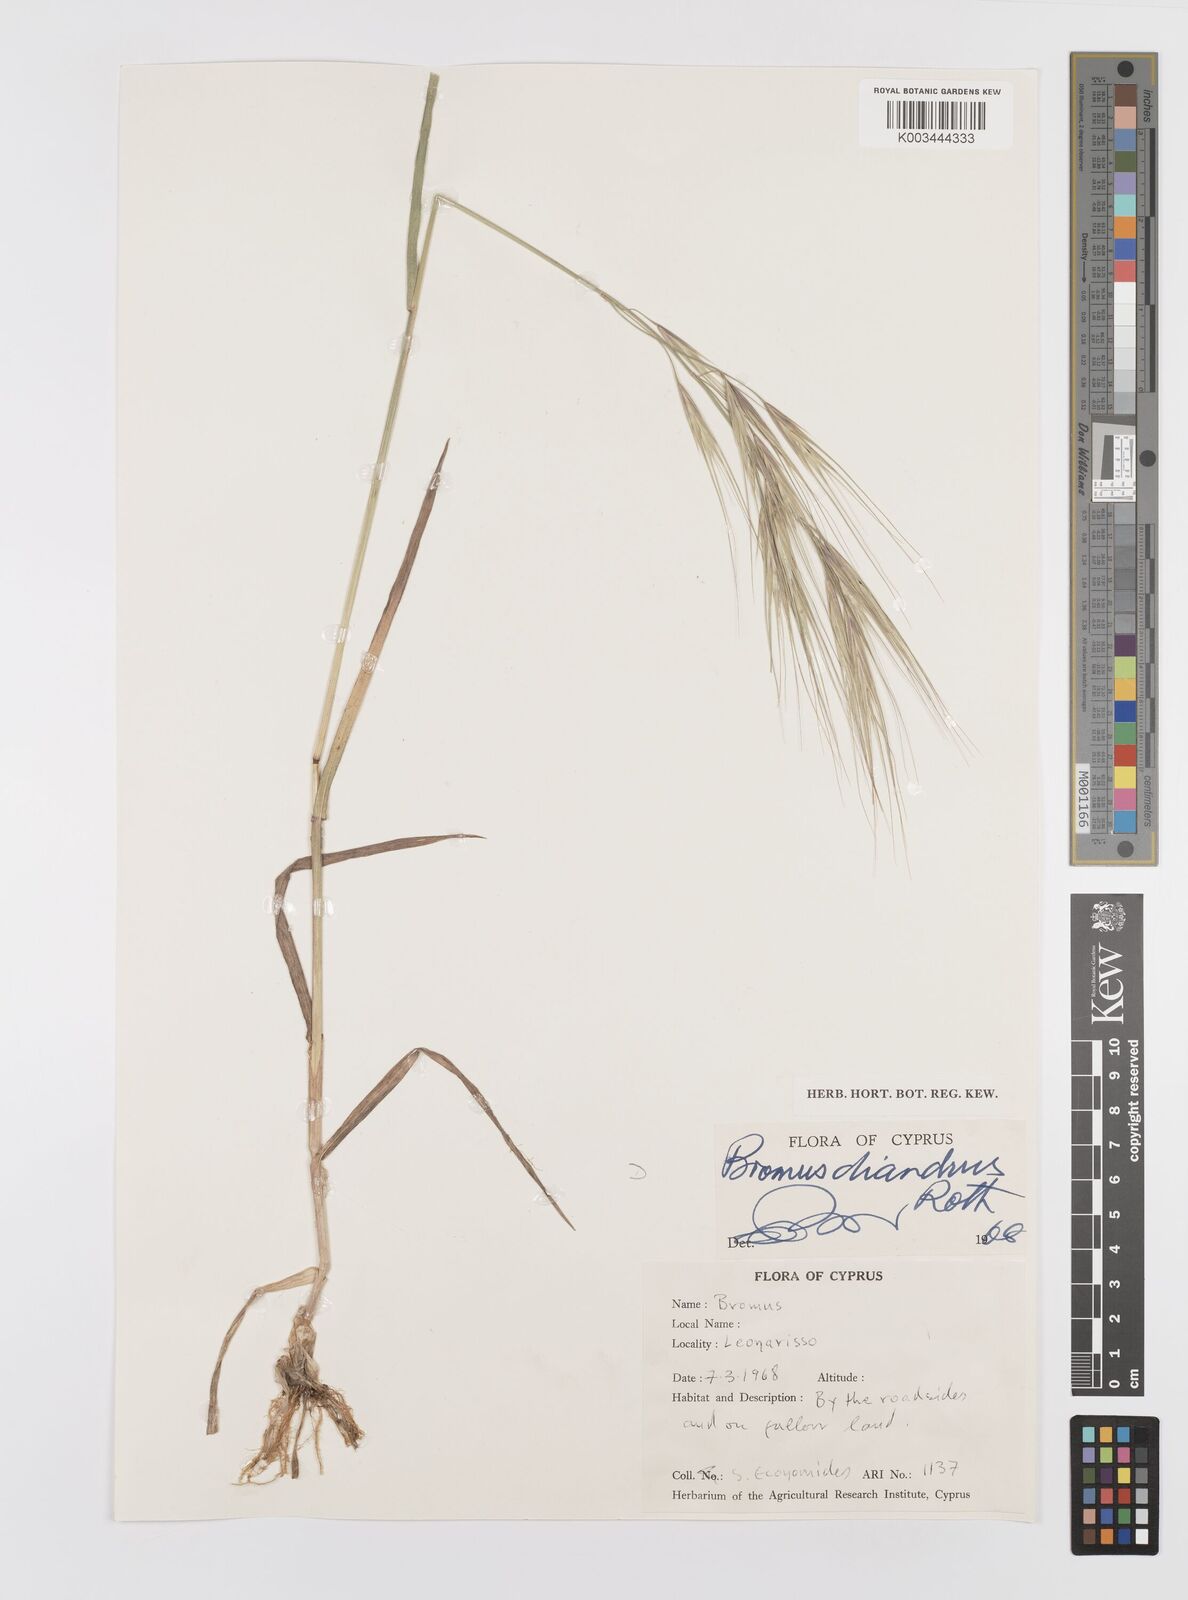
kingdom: Plantae
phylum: Tracheophyta
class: Liliopsida
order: Poales
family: Poaceae
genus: Bromus
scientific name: Bromus diandrus
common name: Ripgut brome
